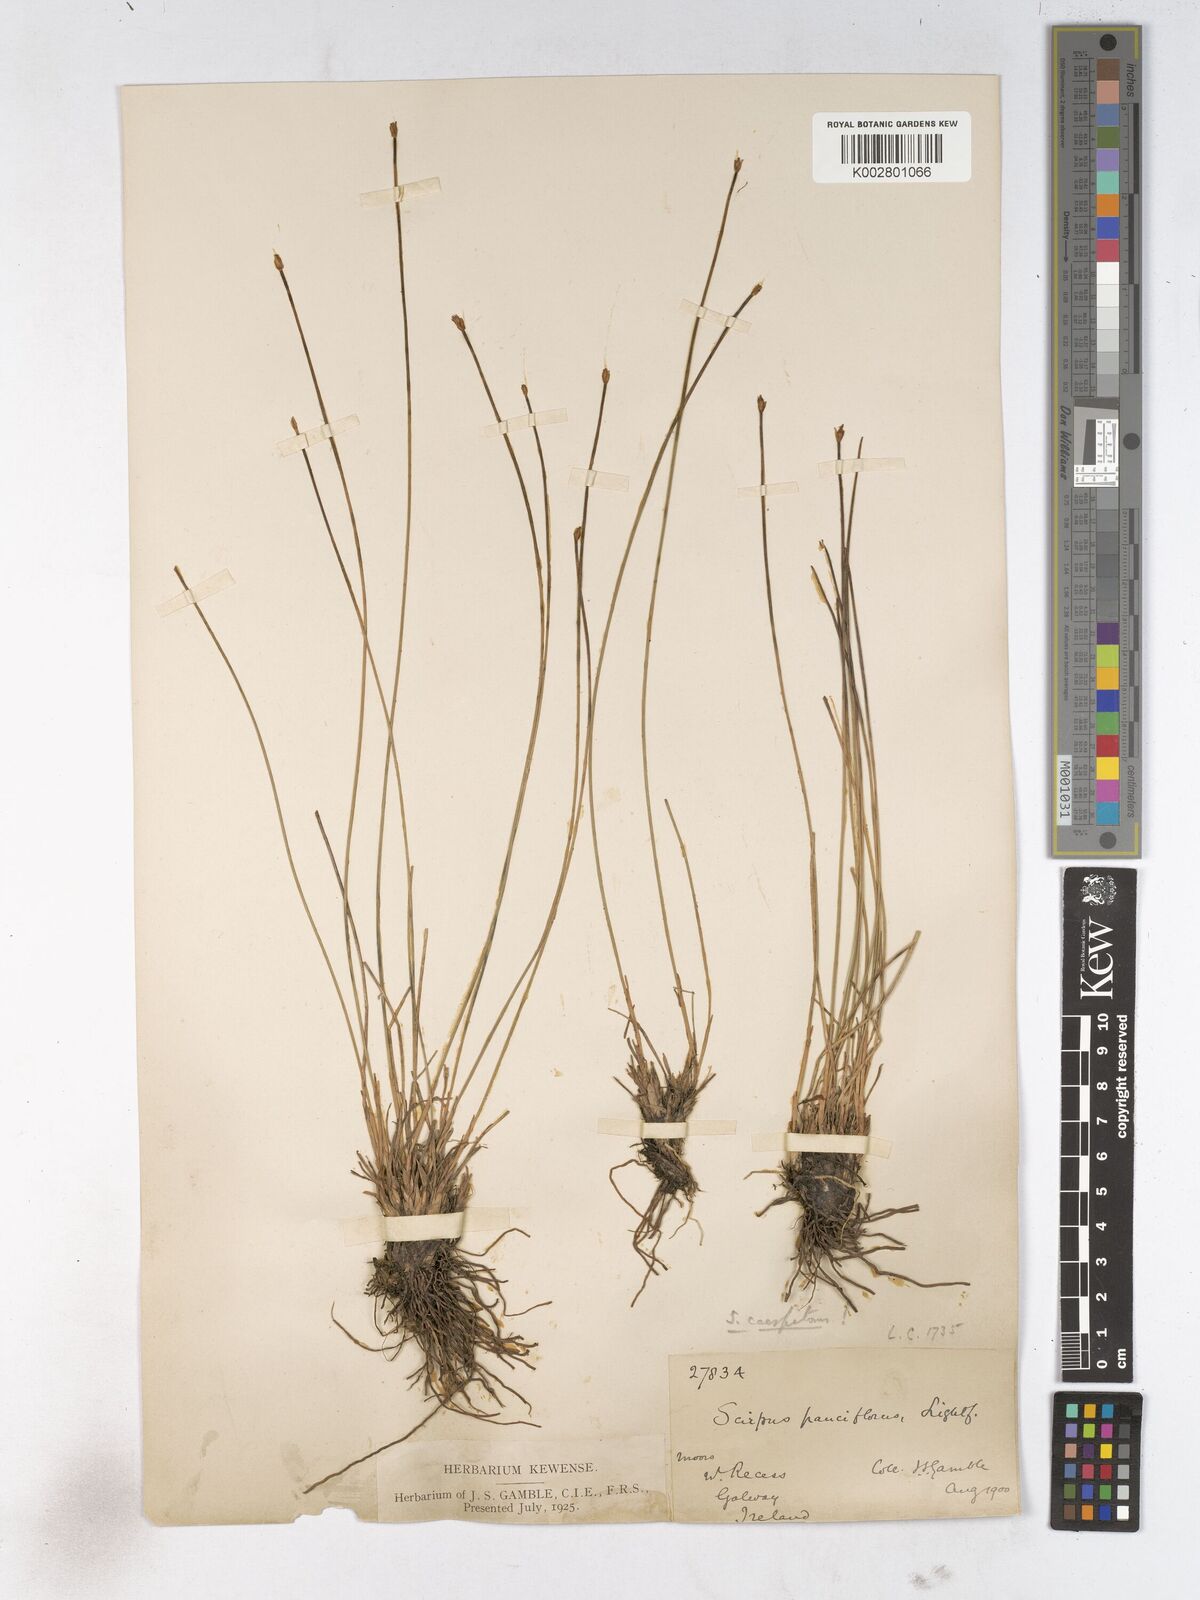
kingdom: Plantae
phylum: Tracheophyta
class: Liliopsida
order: Poales
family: Cyperaceae
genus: Trichophorum
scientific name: Trichophorum cespitosum
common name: Cespitose bulrush
